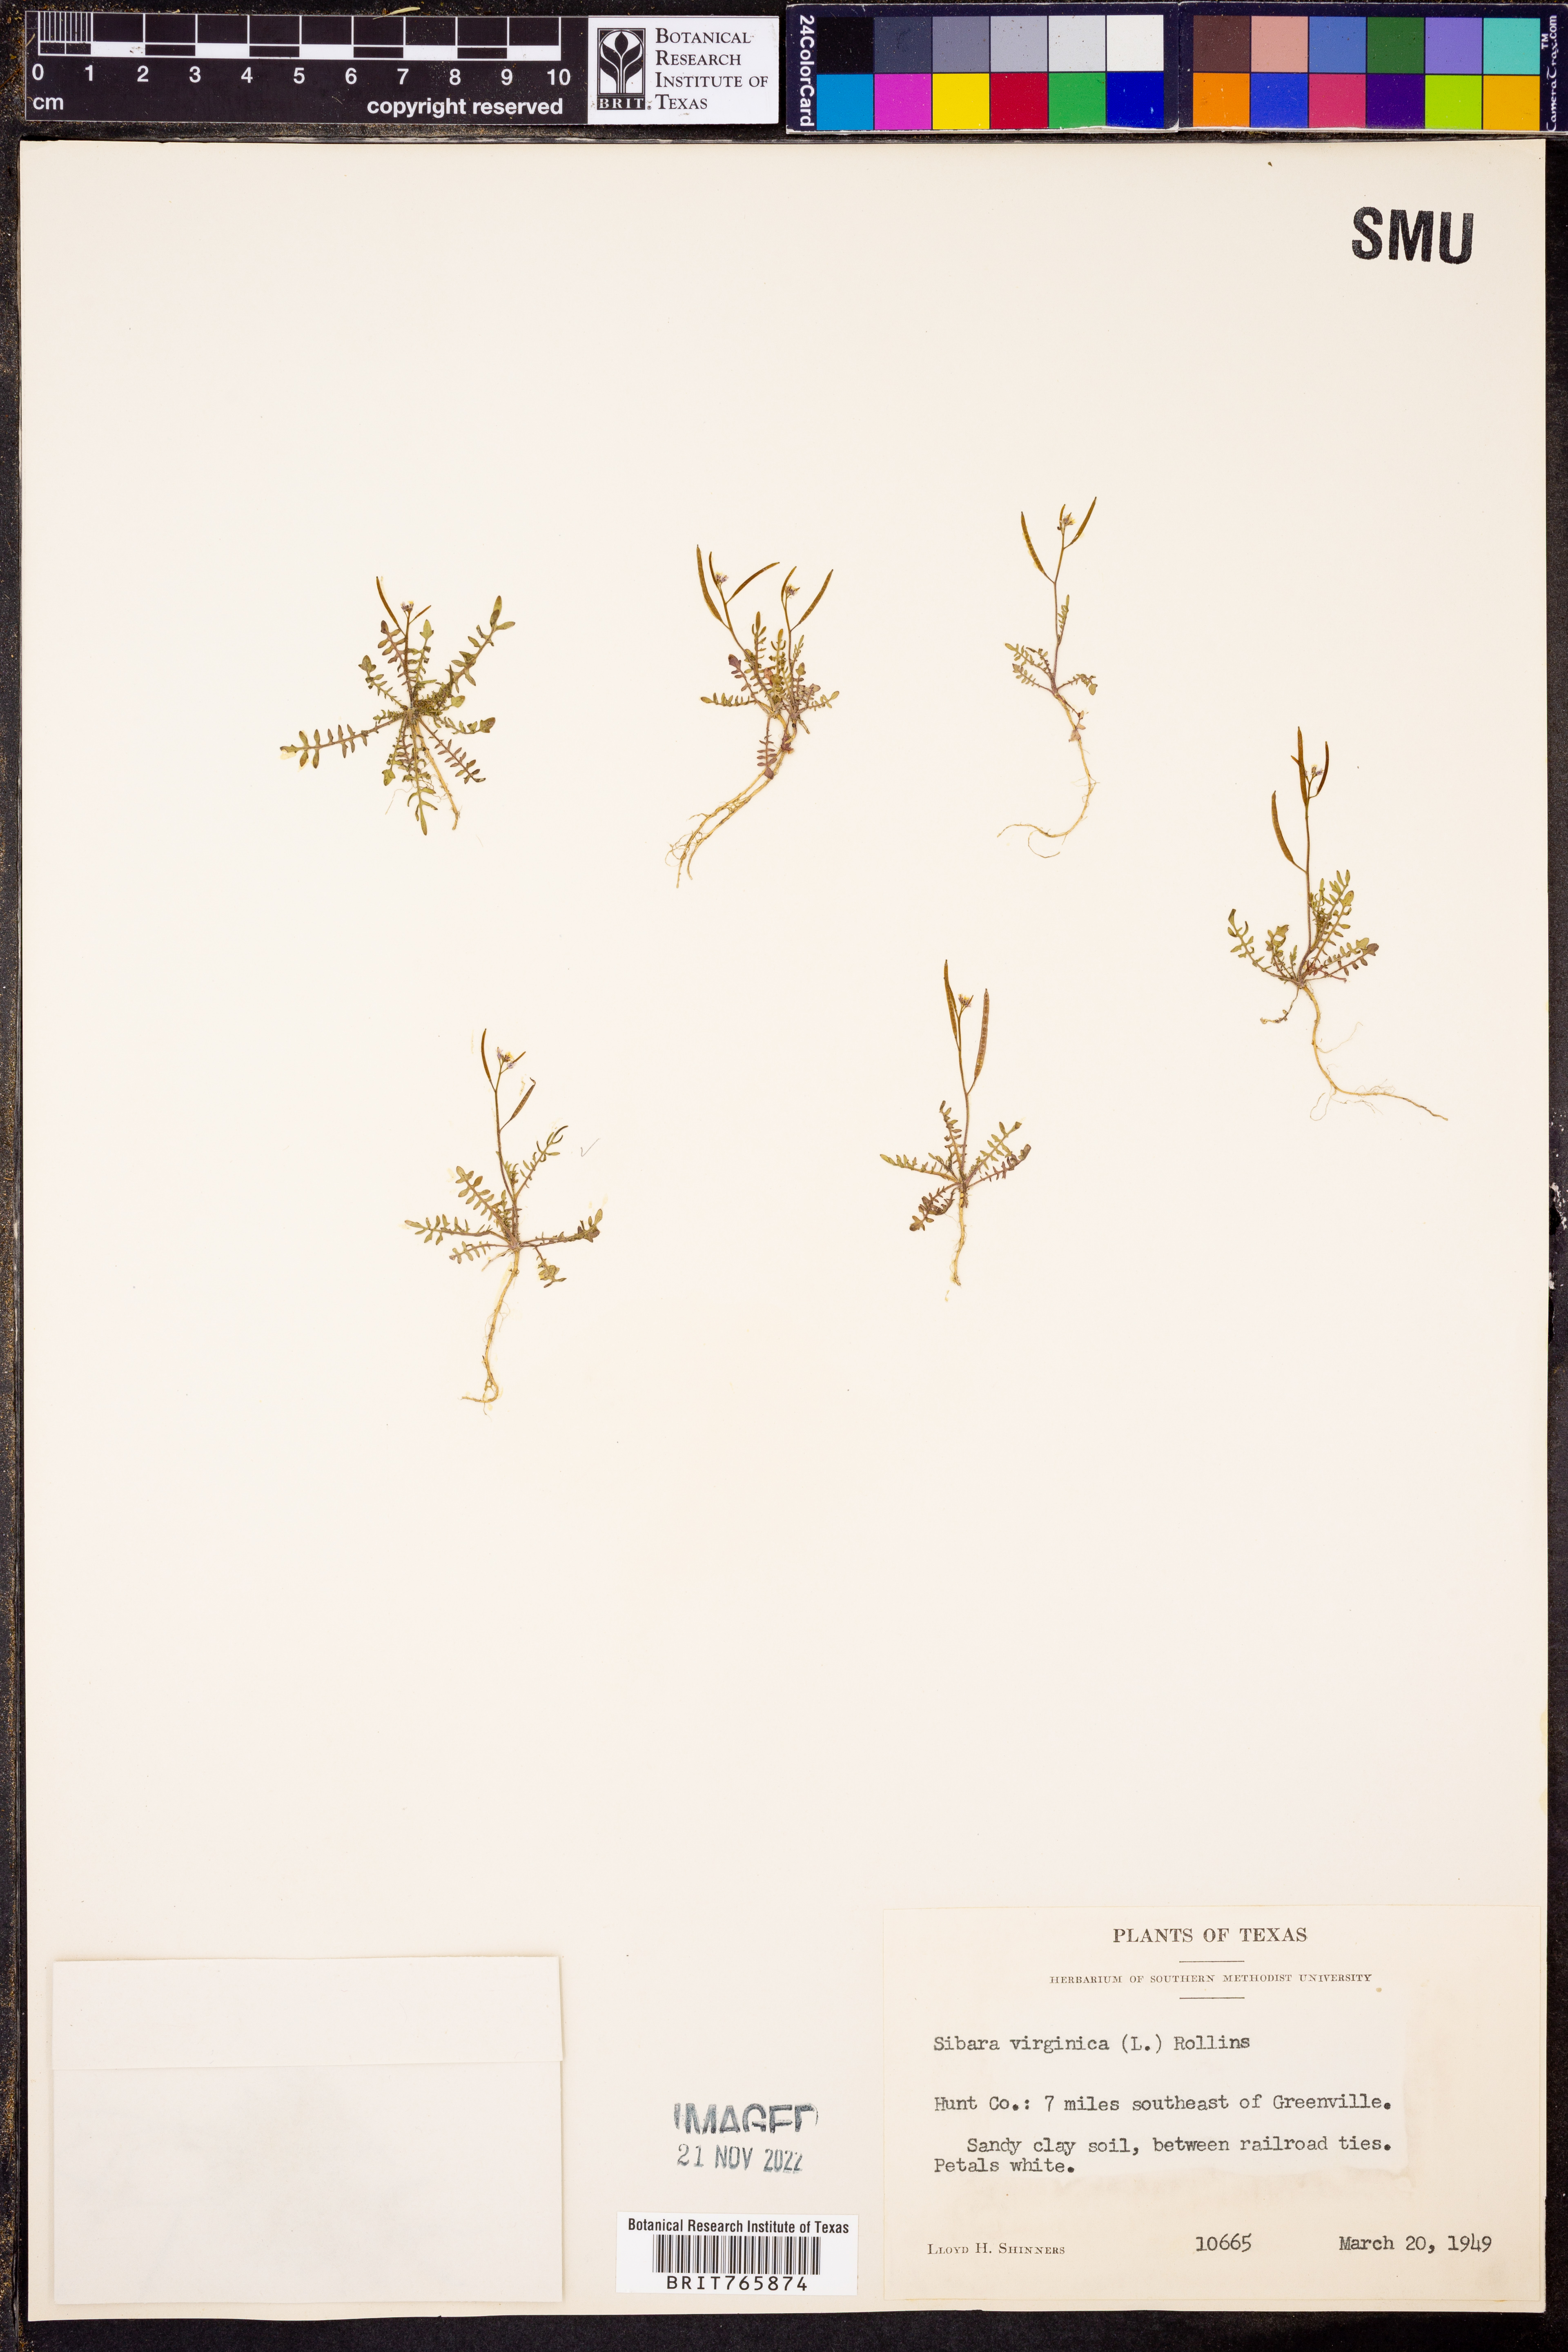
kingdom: Plantae
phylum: Tracheophyta
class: Magnoliopsida
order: Brassicales
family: Brassicaceae
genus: Planodes
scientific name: Planodes virginicum
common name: Virginia cress
